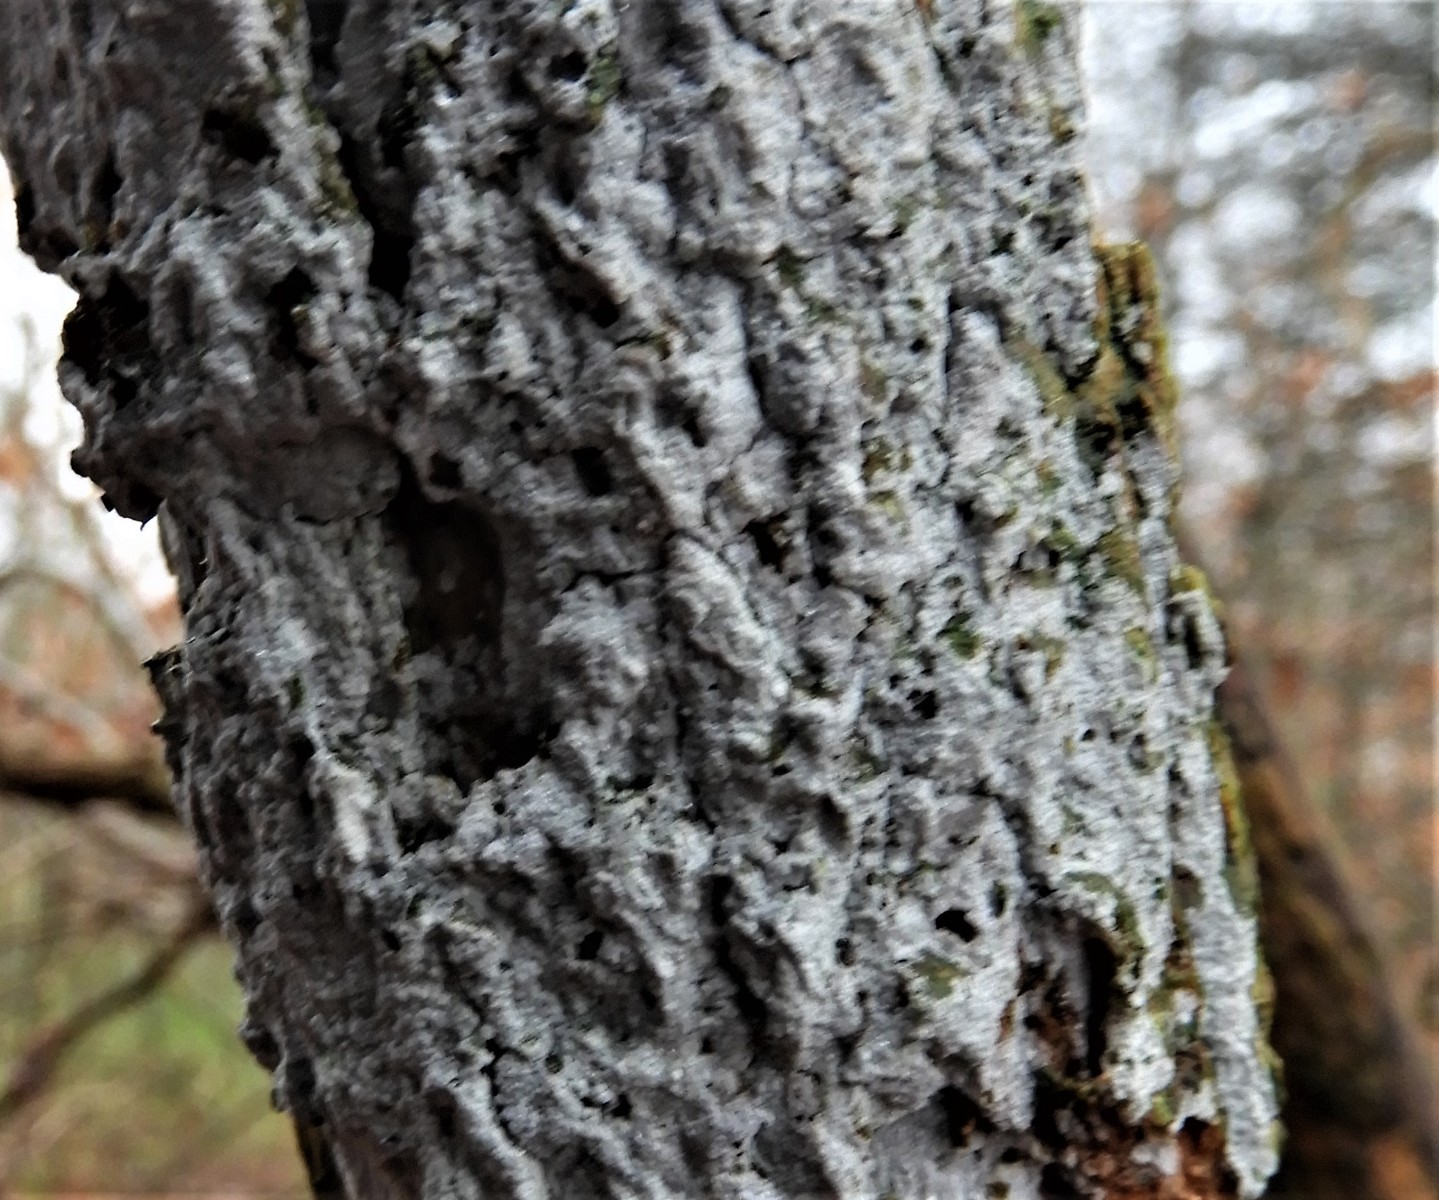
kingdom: Fungi
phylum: Basidiomycota
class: Agaricomycetes
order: Corticiales
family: Corticiaceae
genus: Lyomyces
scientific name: Lyomyces sambuci
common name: almindelig hyldehinde
